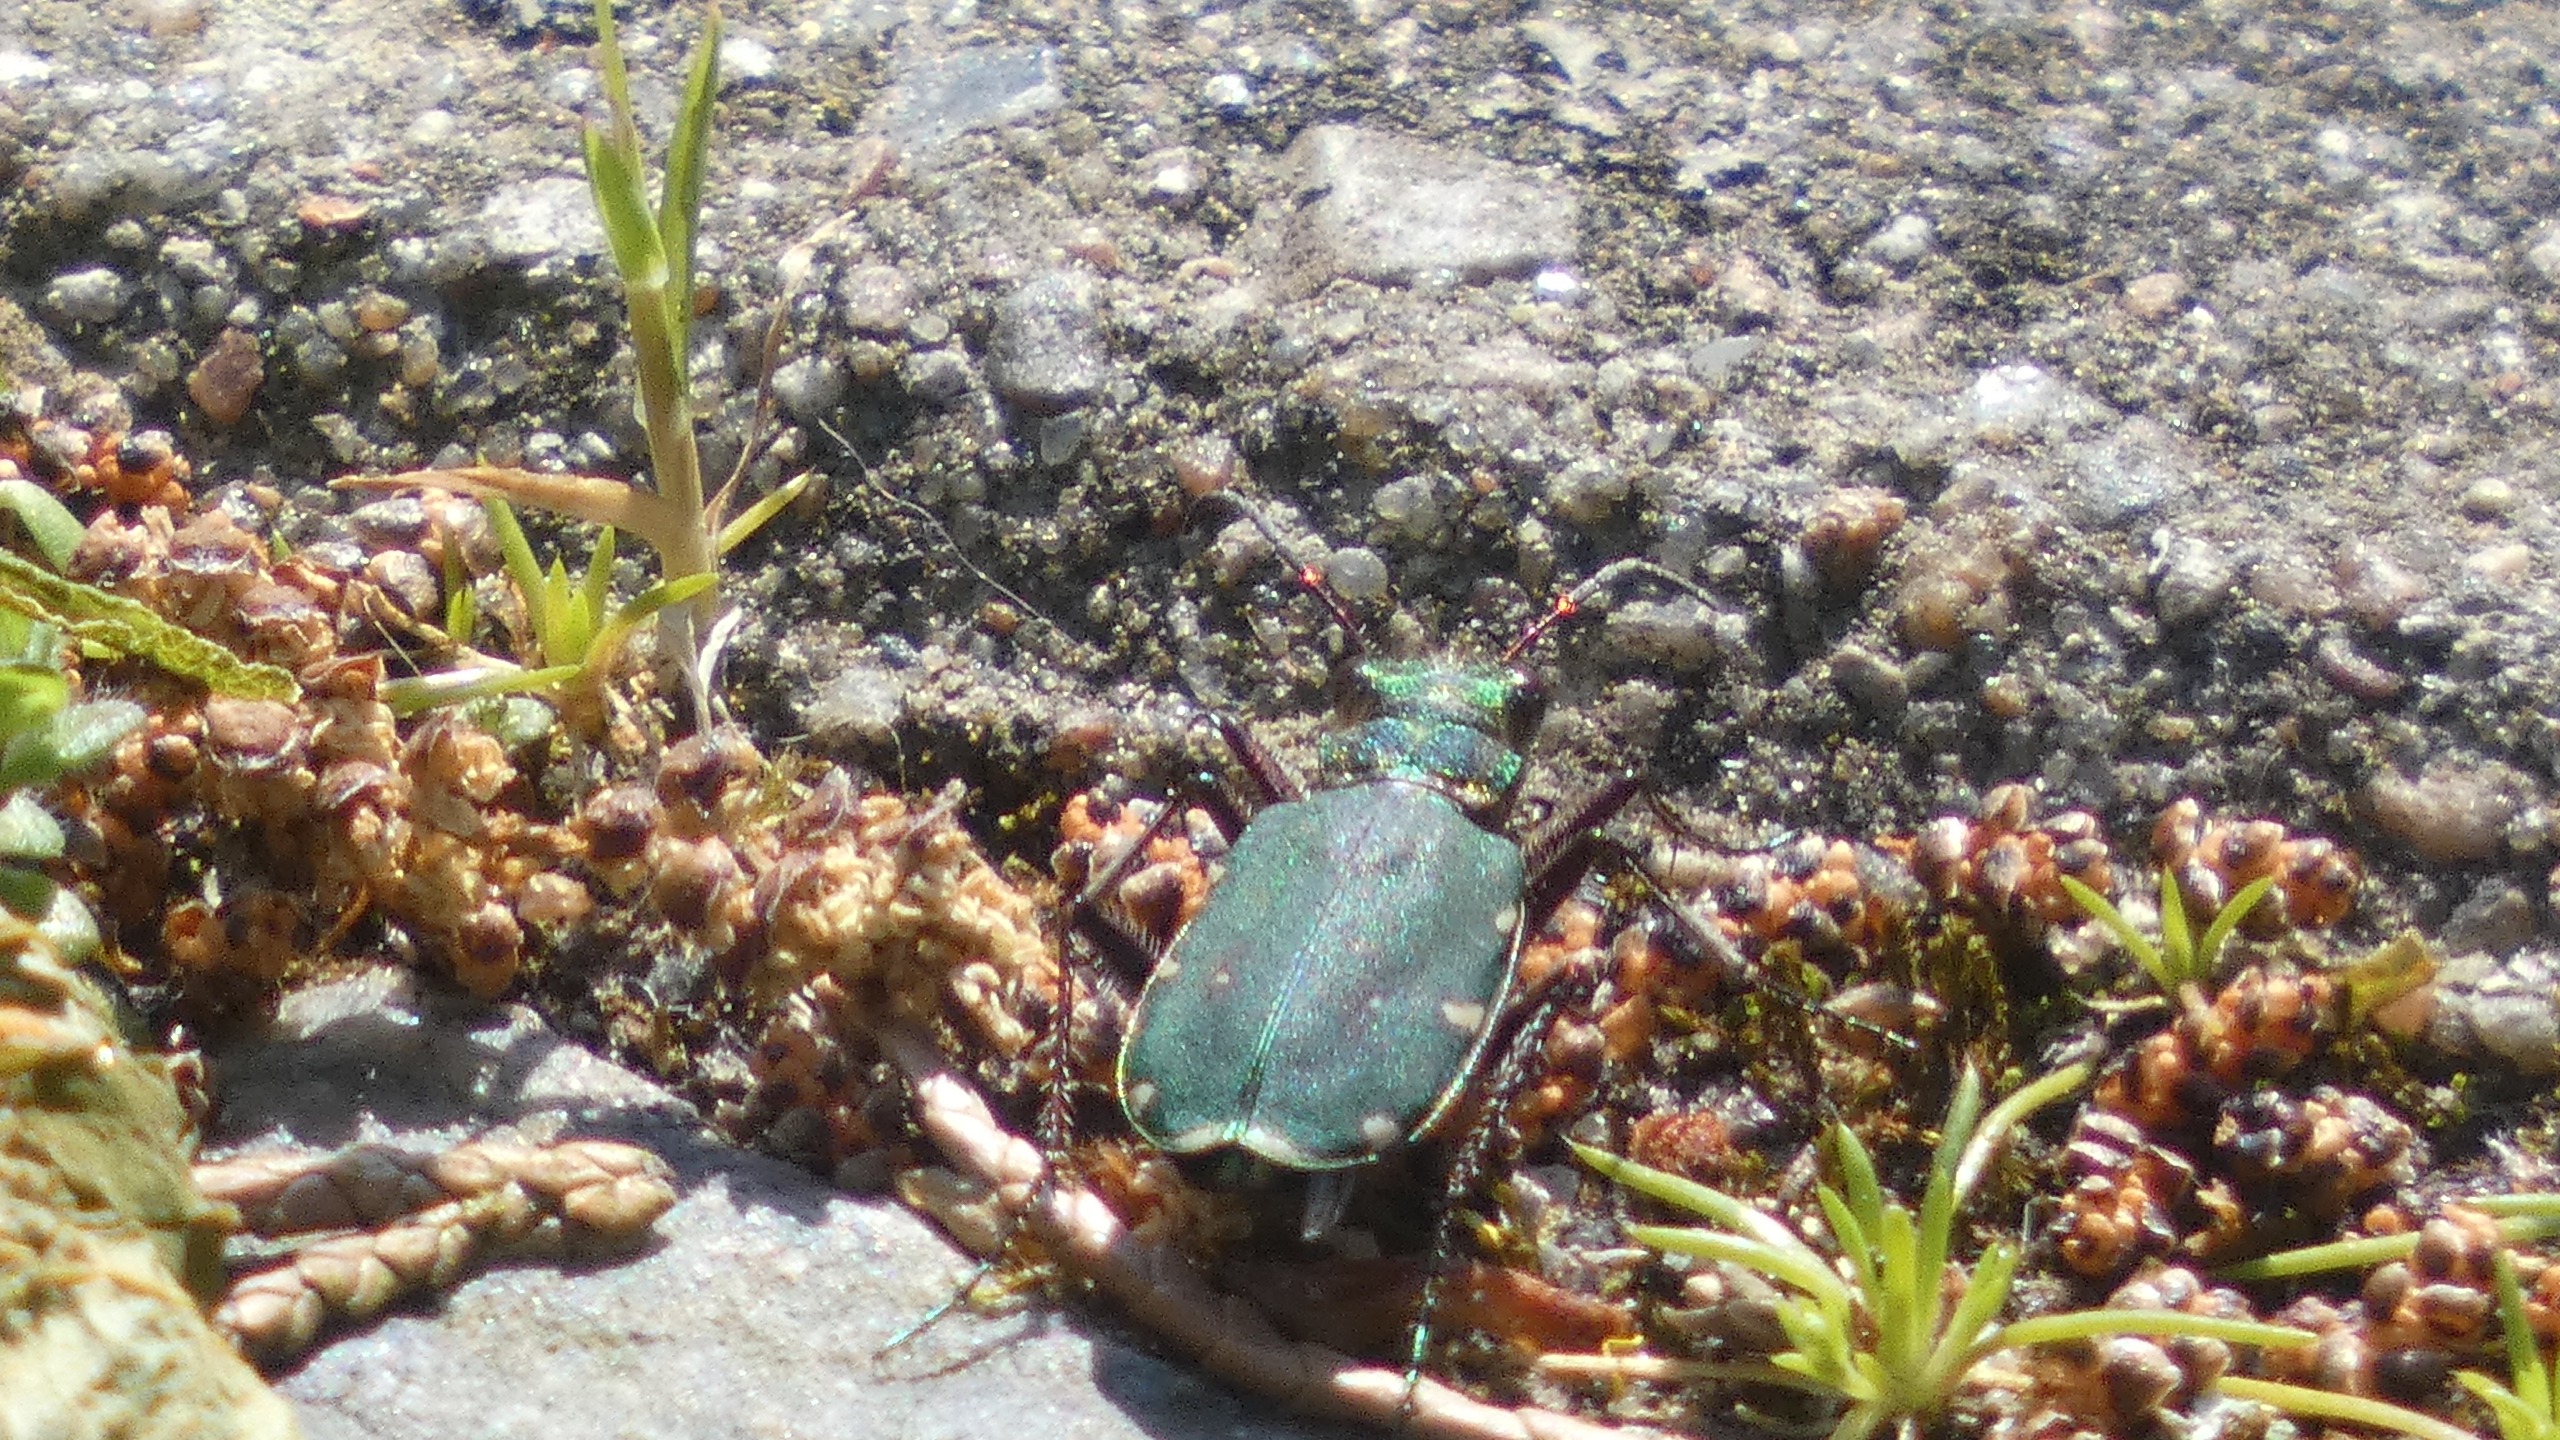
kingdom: Animalia
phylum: Arthropoda
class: Insecta
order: Coleoptera
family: Carabidae
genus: Cicindela
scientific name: Cicindela campestris
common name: Grøn sandspringer
